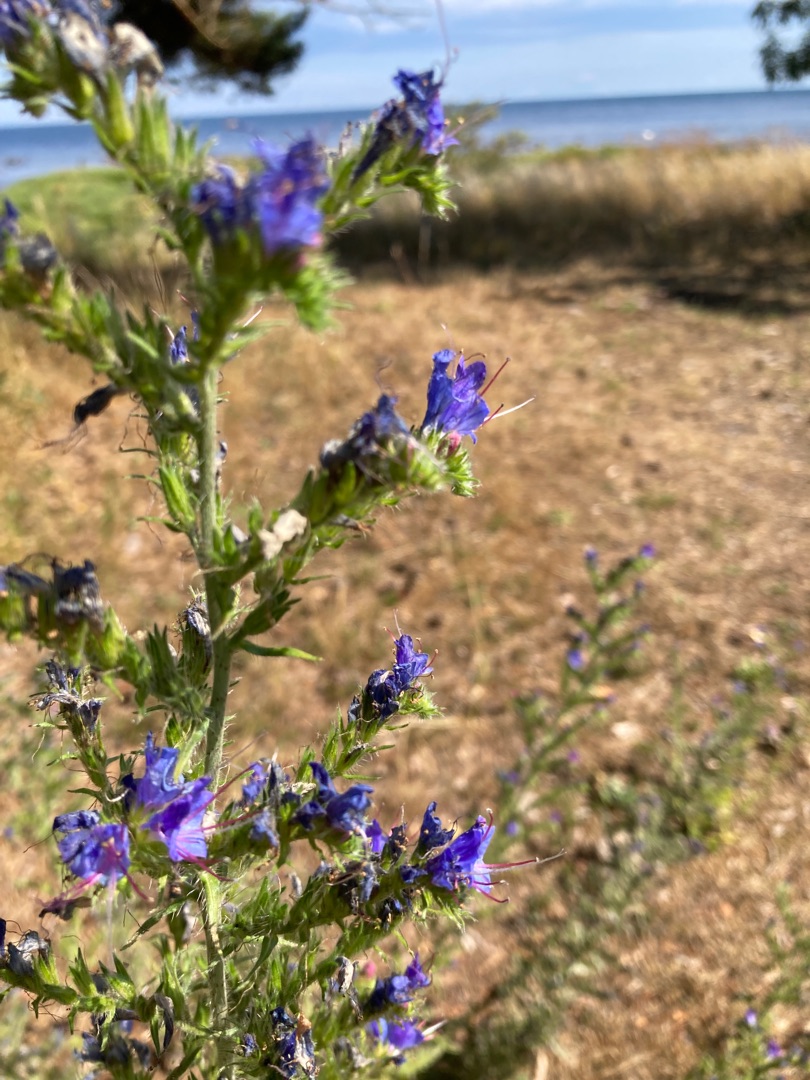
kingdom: Plantae
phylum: Tracheophyta
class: Magnoliopsida
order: Boraginales
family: Boraginaceae
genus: Echium
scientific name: Echium vulgare
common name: Slangehoved
